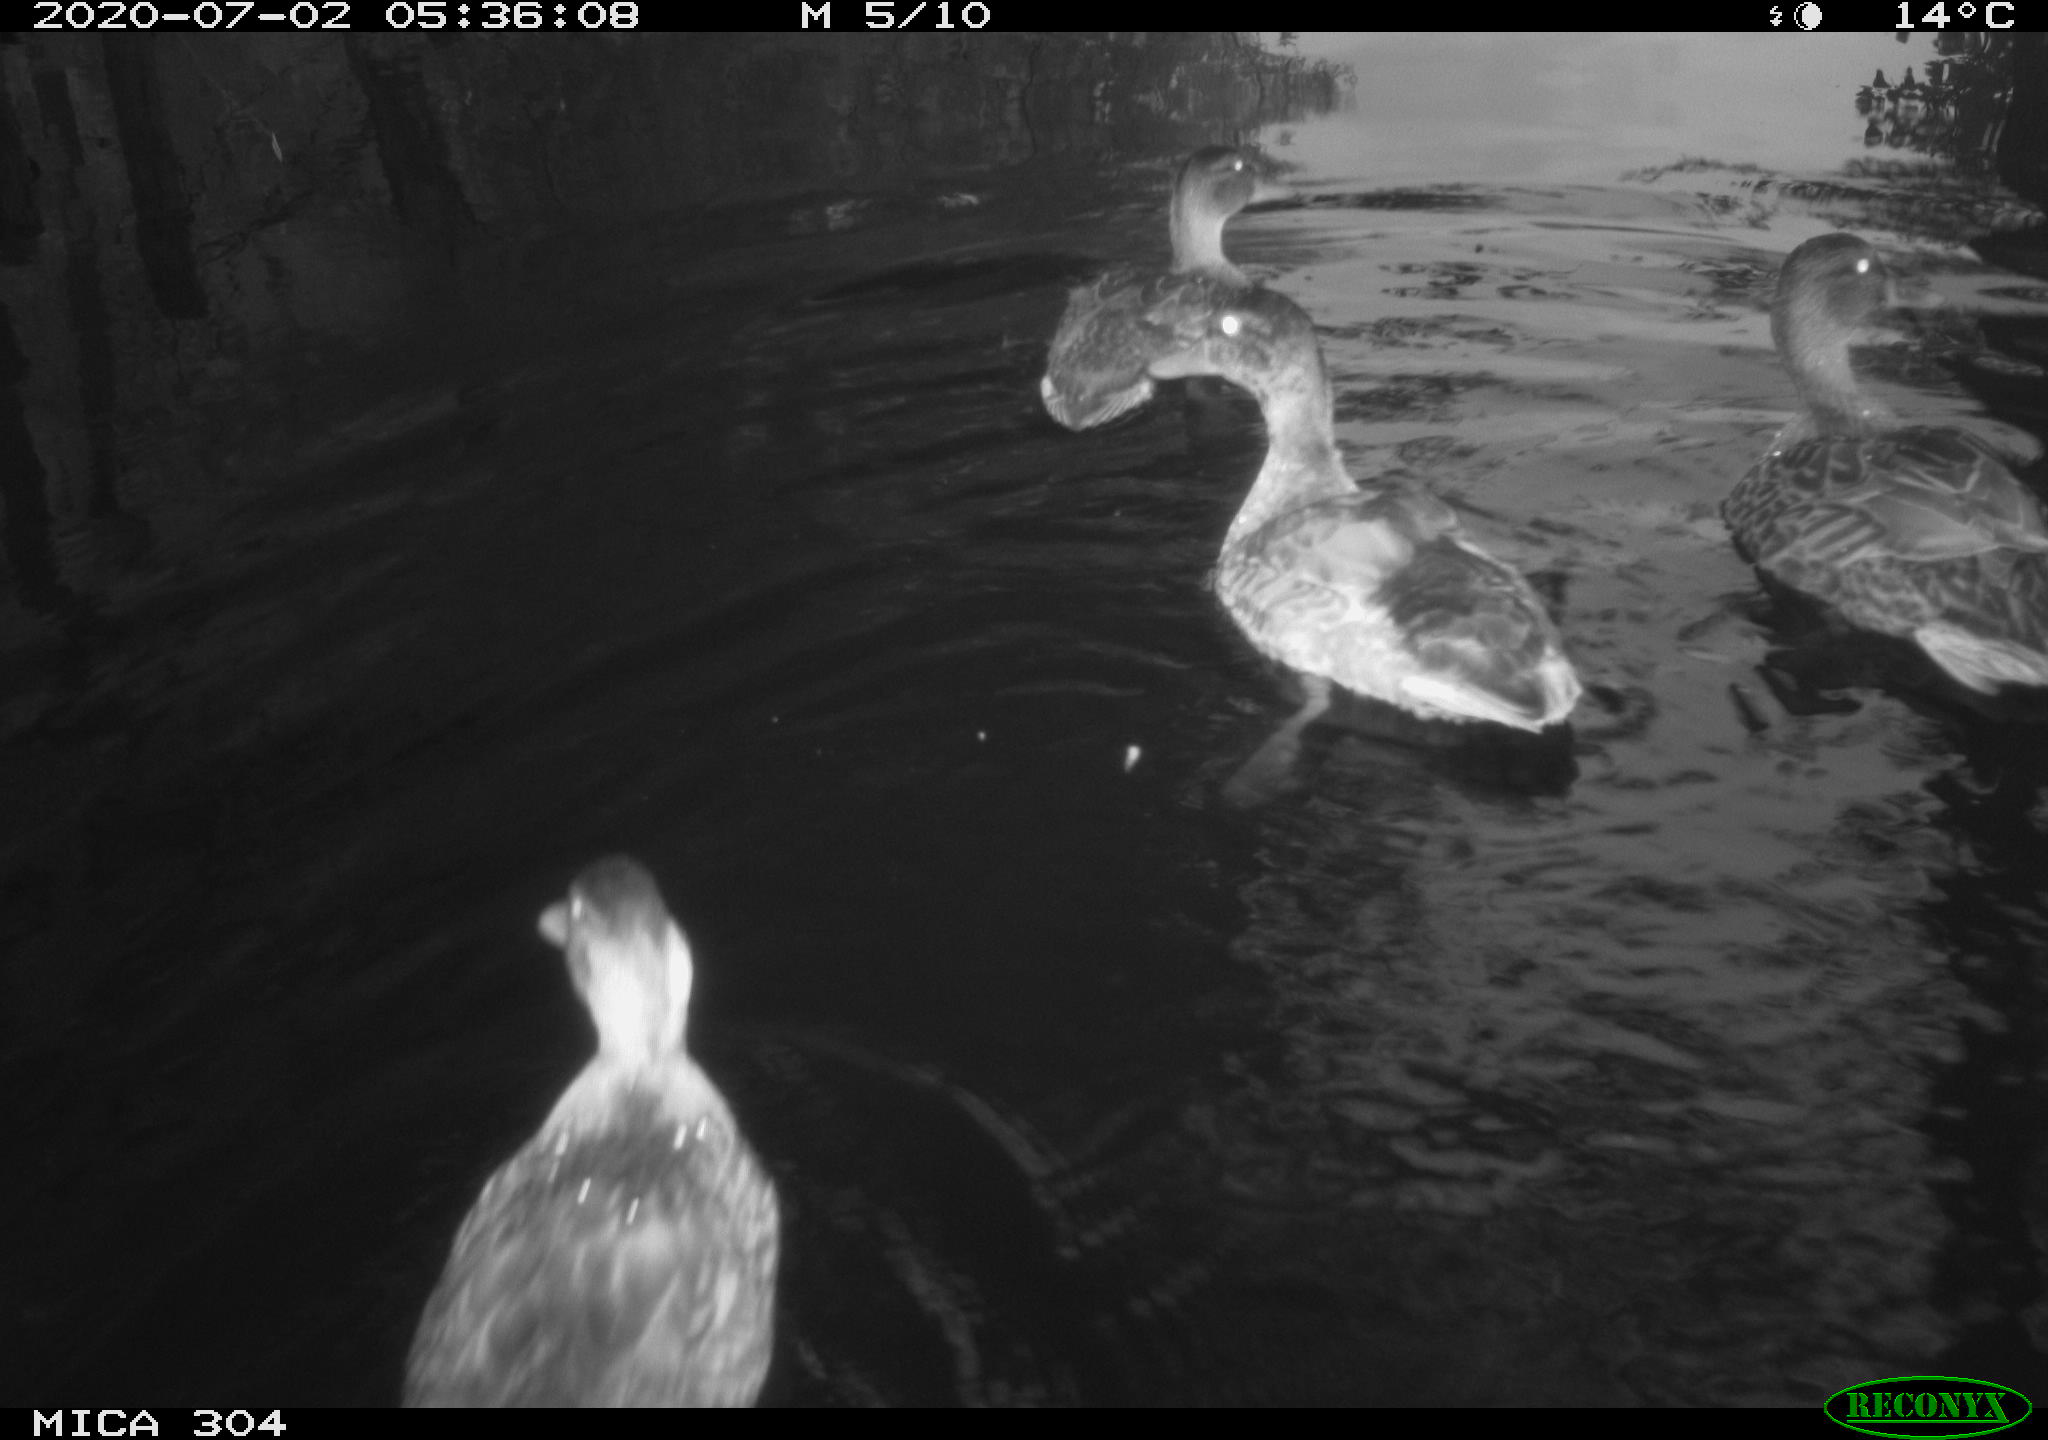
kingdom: Animalia
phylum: Chordata
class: Aves
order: Anseriformes
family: Anatidae
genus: Anas
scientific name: Anas platyrhynchos
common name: Mallard
